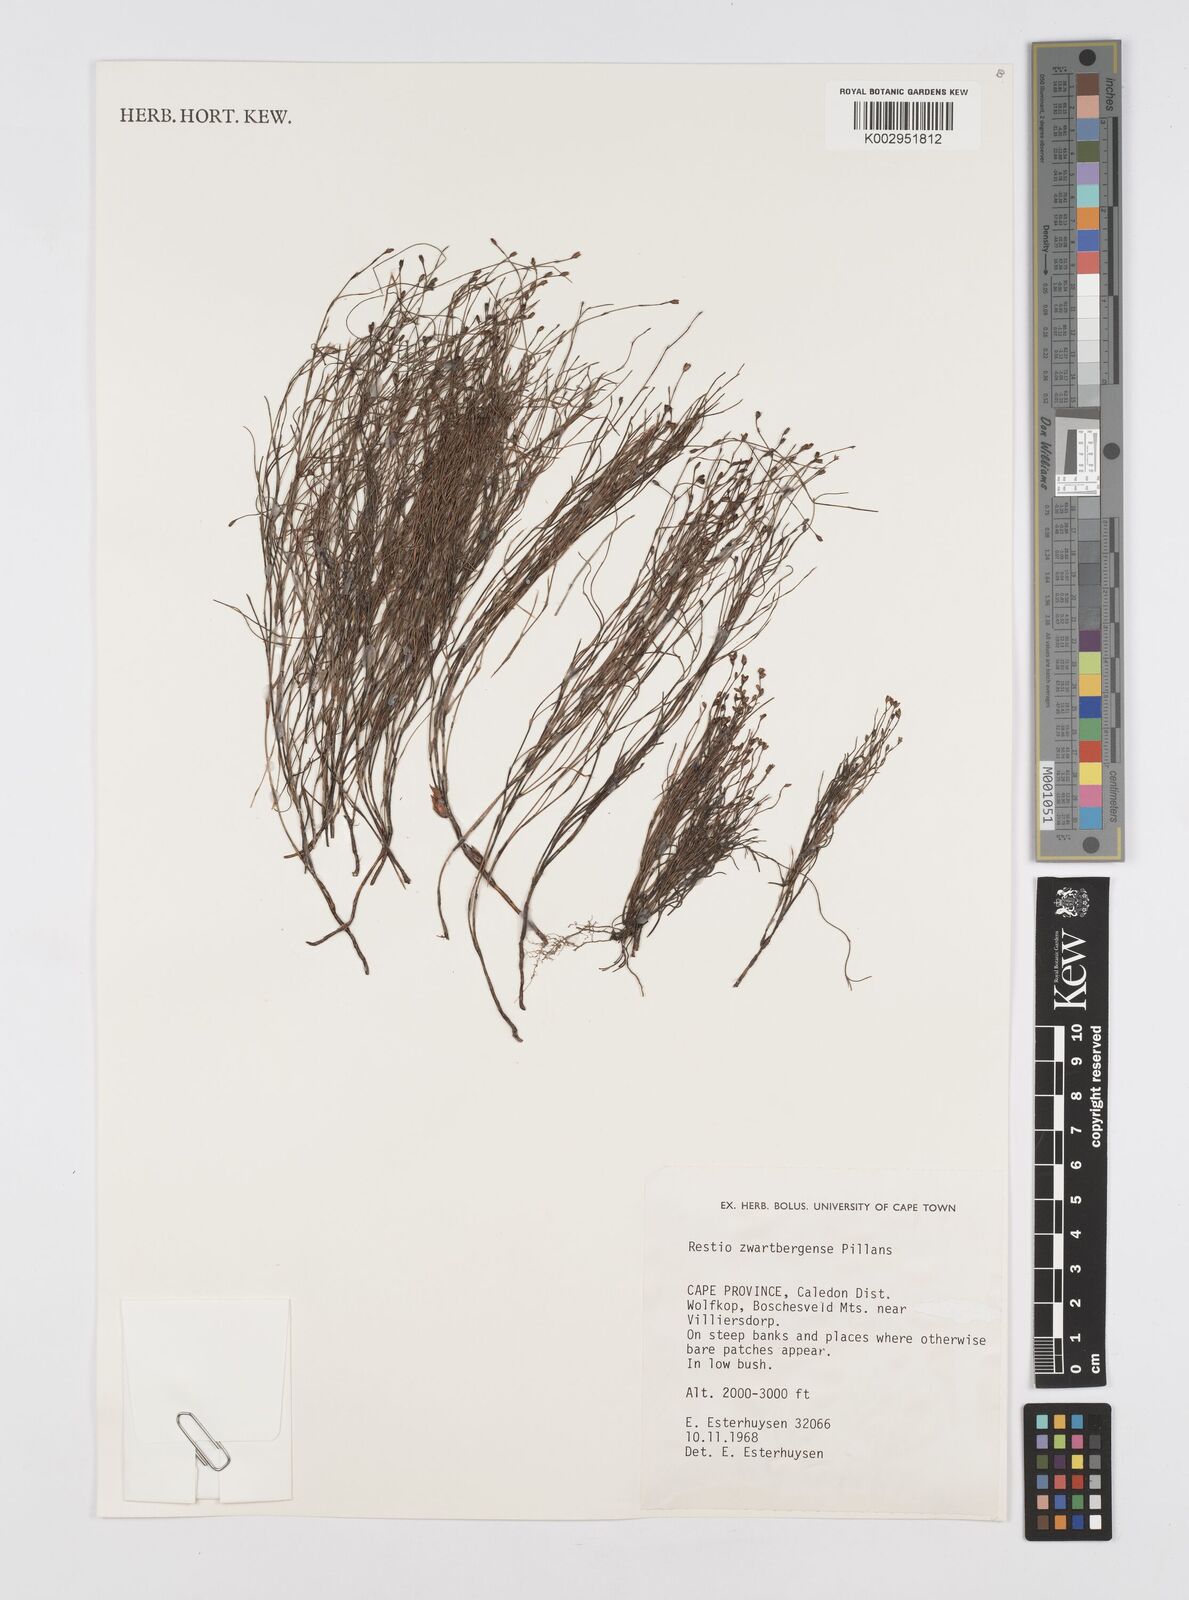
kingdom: Plantae
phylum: Tracheophyta
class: Liliopsida
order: Poales
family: Restionaceae
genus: Restio
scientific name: Restio zwartbergensis
